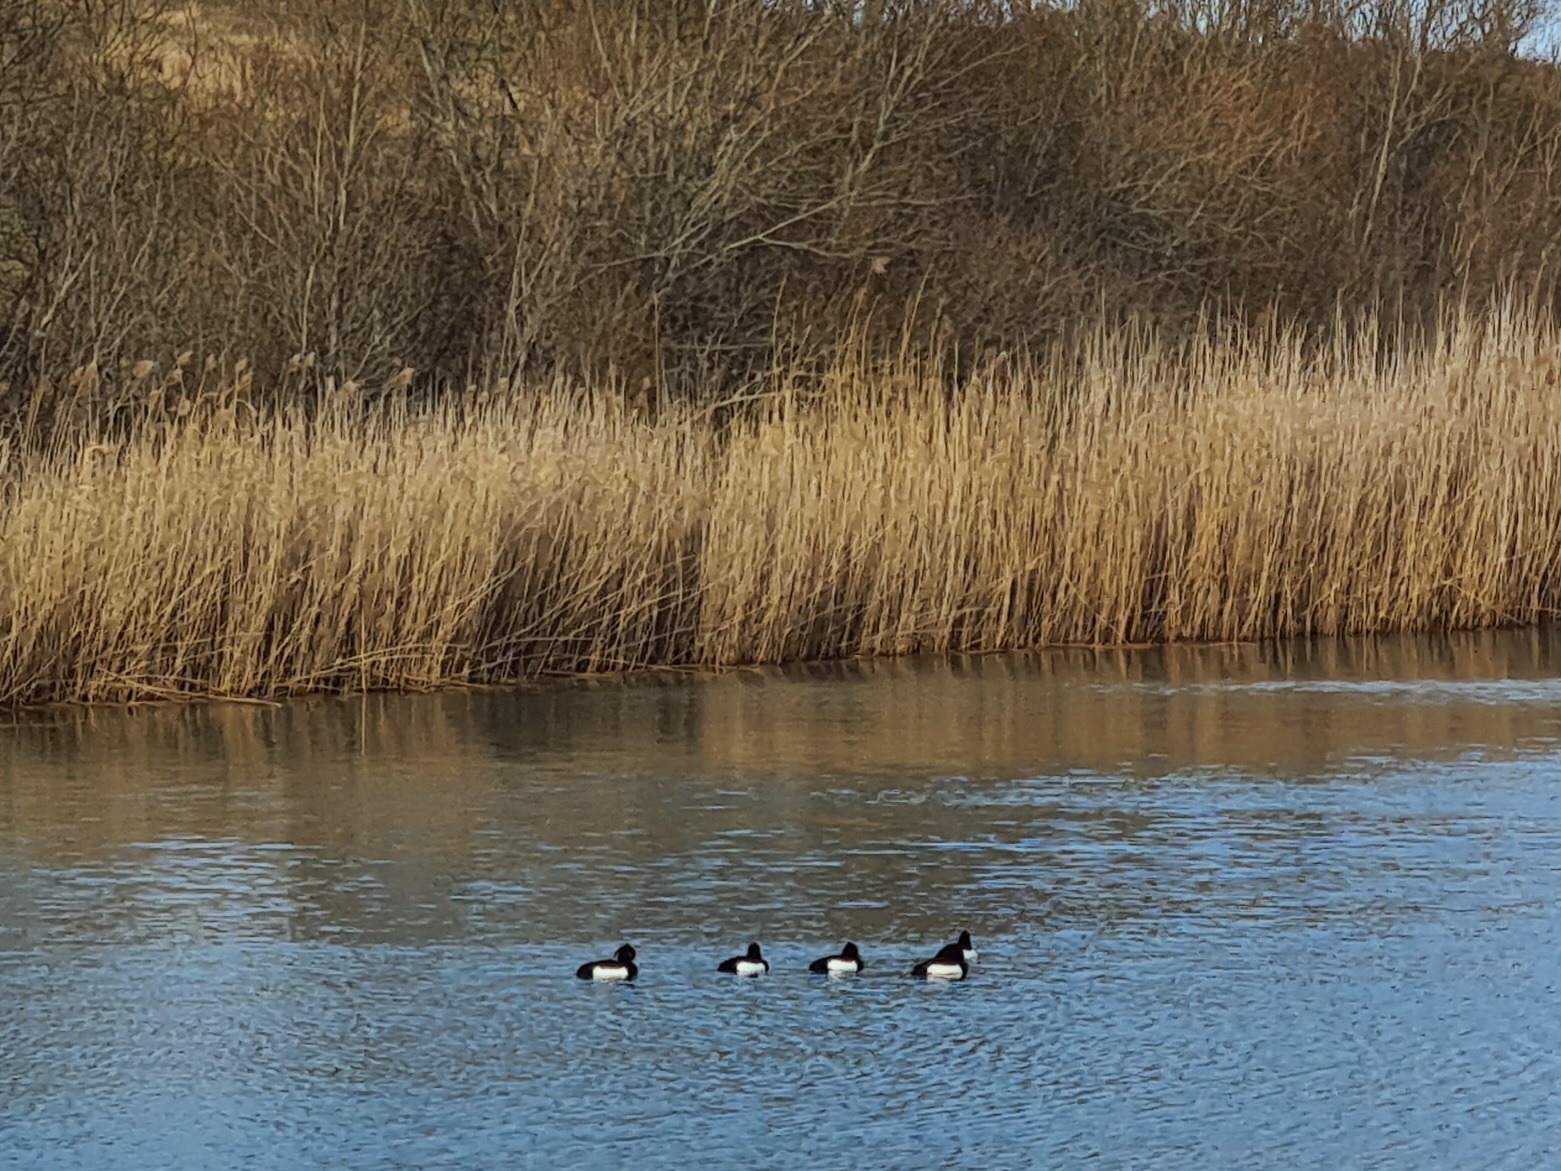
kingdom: Animalia
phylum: Chordata
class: Aves
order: Anseriformes
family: Anatidae
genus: Aythya
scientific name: Aythya fuligula
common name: Troldand
